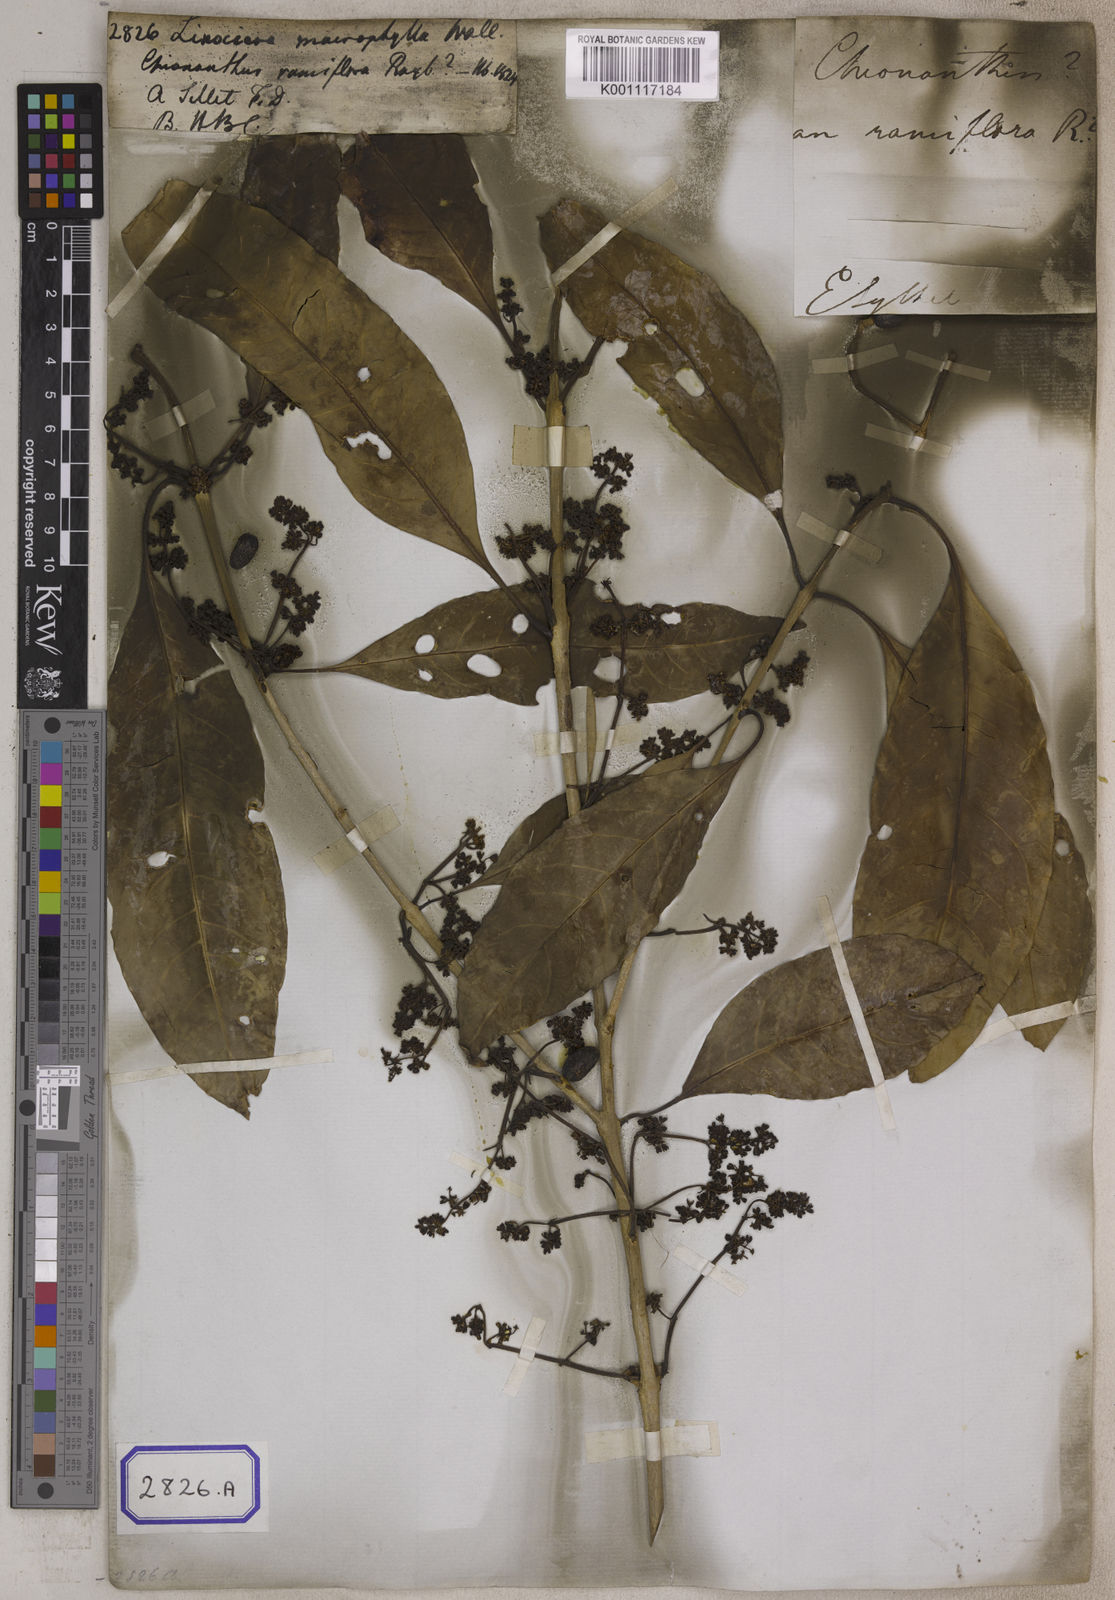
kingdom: Plantae
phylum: Tracheophyta
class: Magnoliopsida
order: Lamiales
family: Oleaceae
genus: Chionanthus
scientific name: Chionanthus
